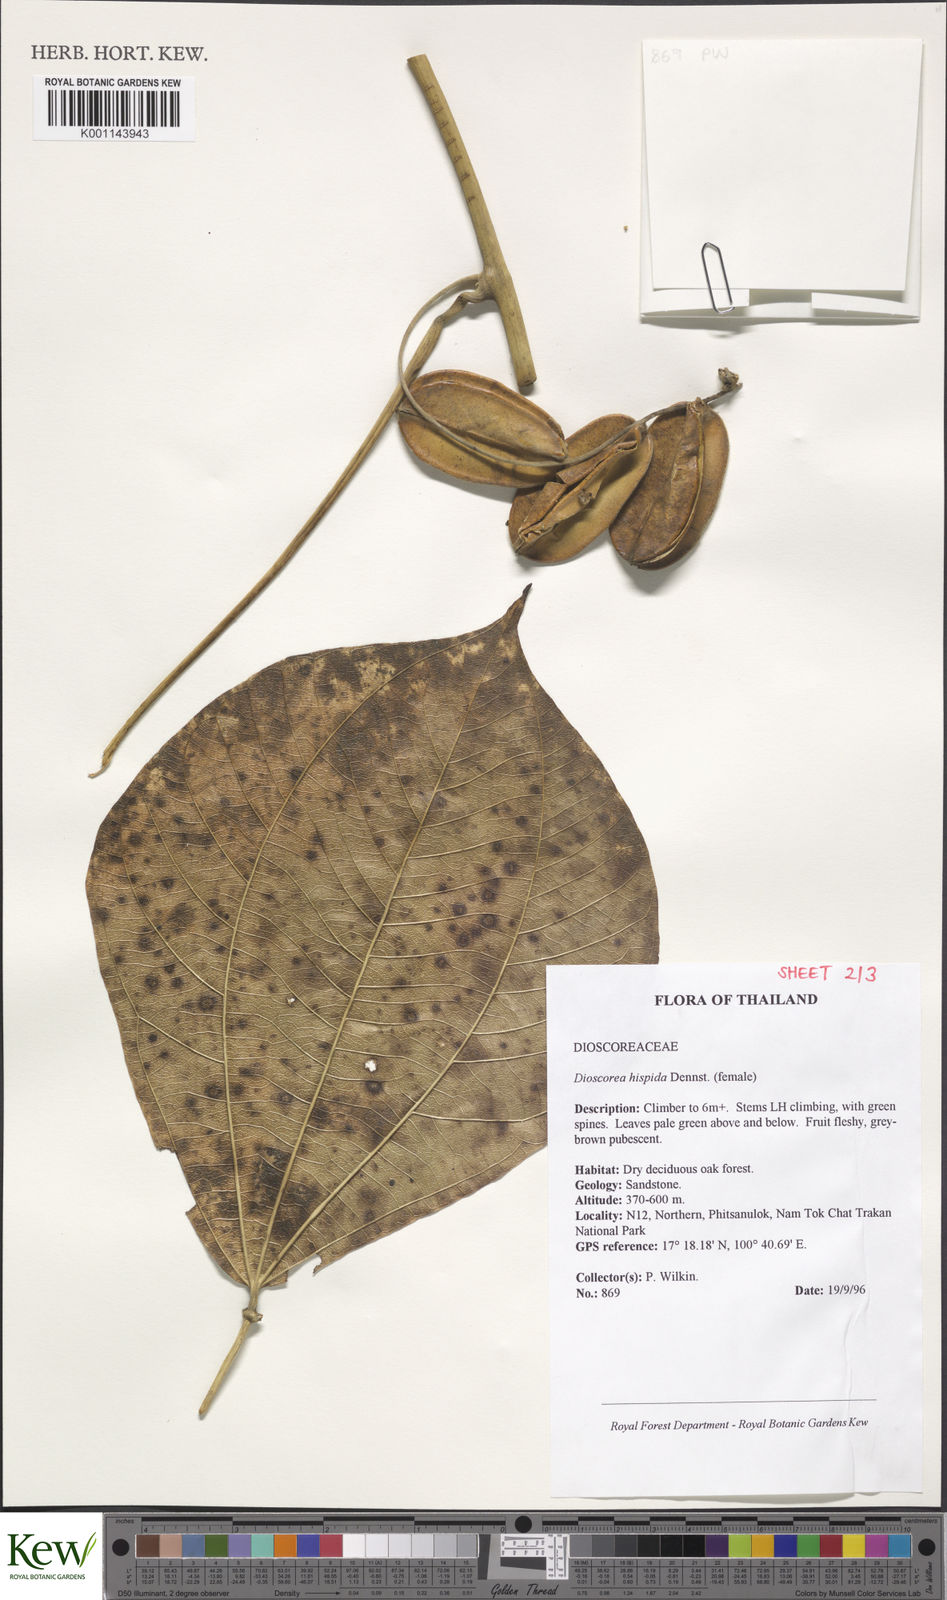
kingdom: Plantae
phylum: Tracheophyta
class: Liliopsida
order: Dioscoreales
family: Dioscoreaceae
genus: Dioscorea
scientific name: Dioscorea hispida
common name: Asiatic bitter yam
